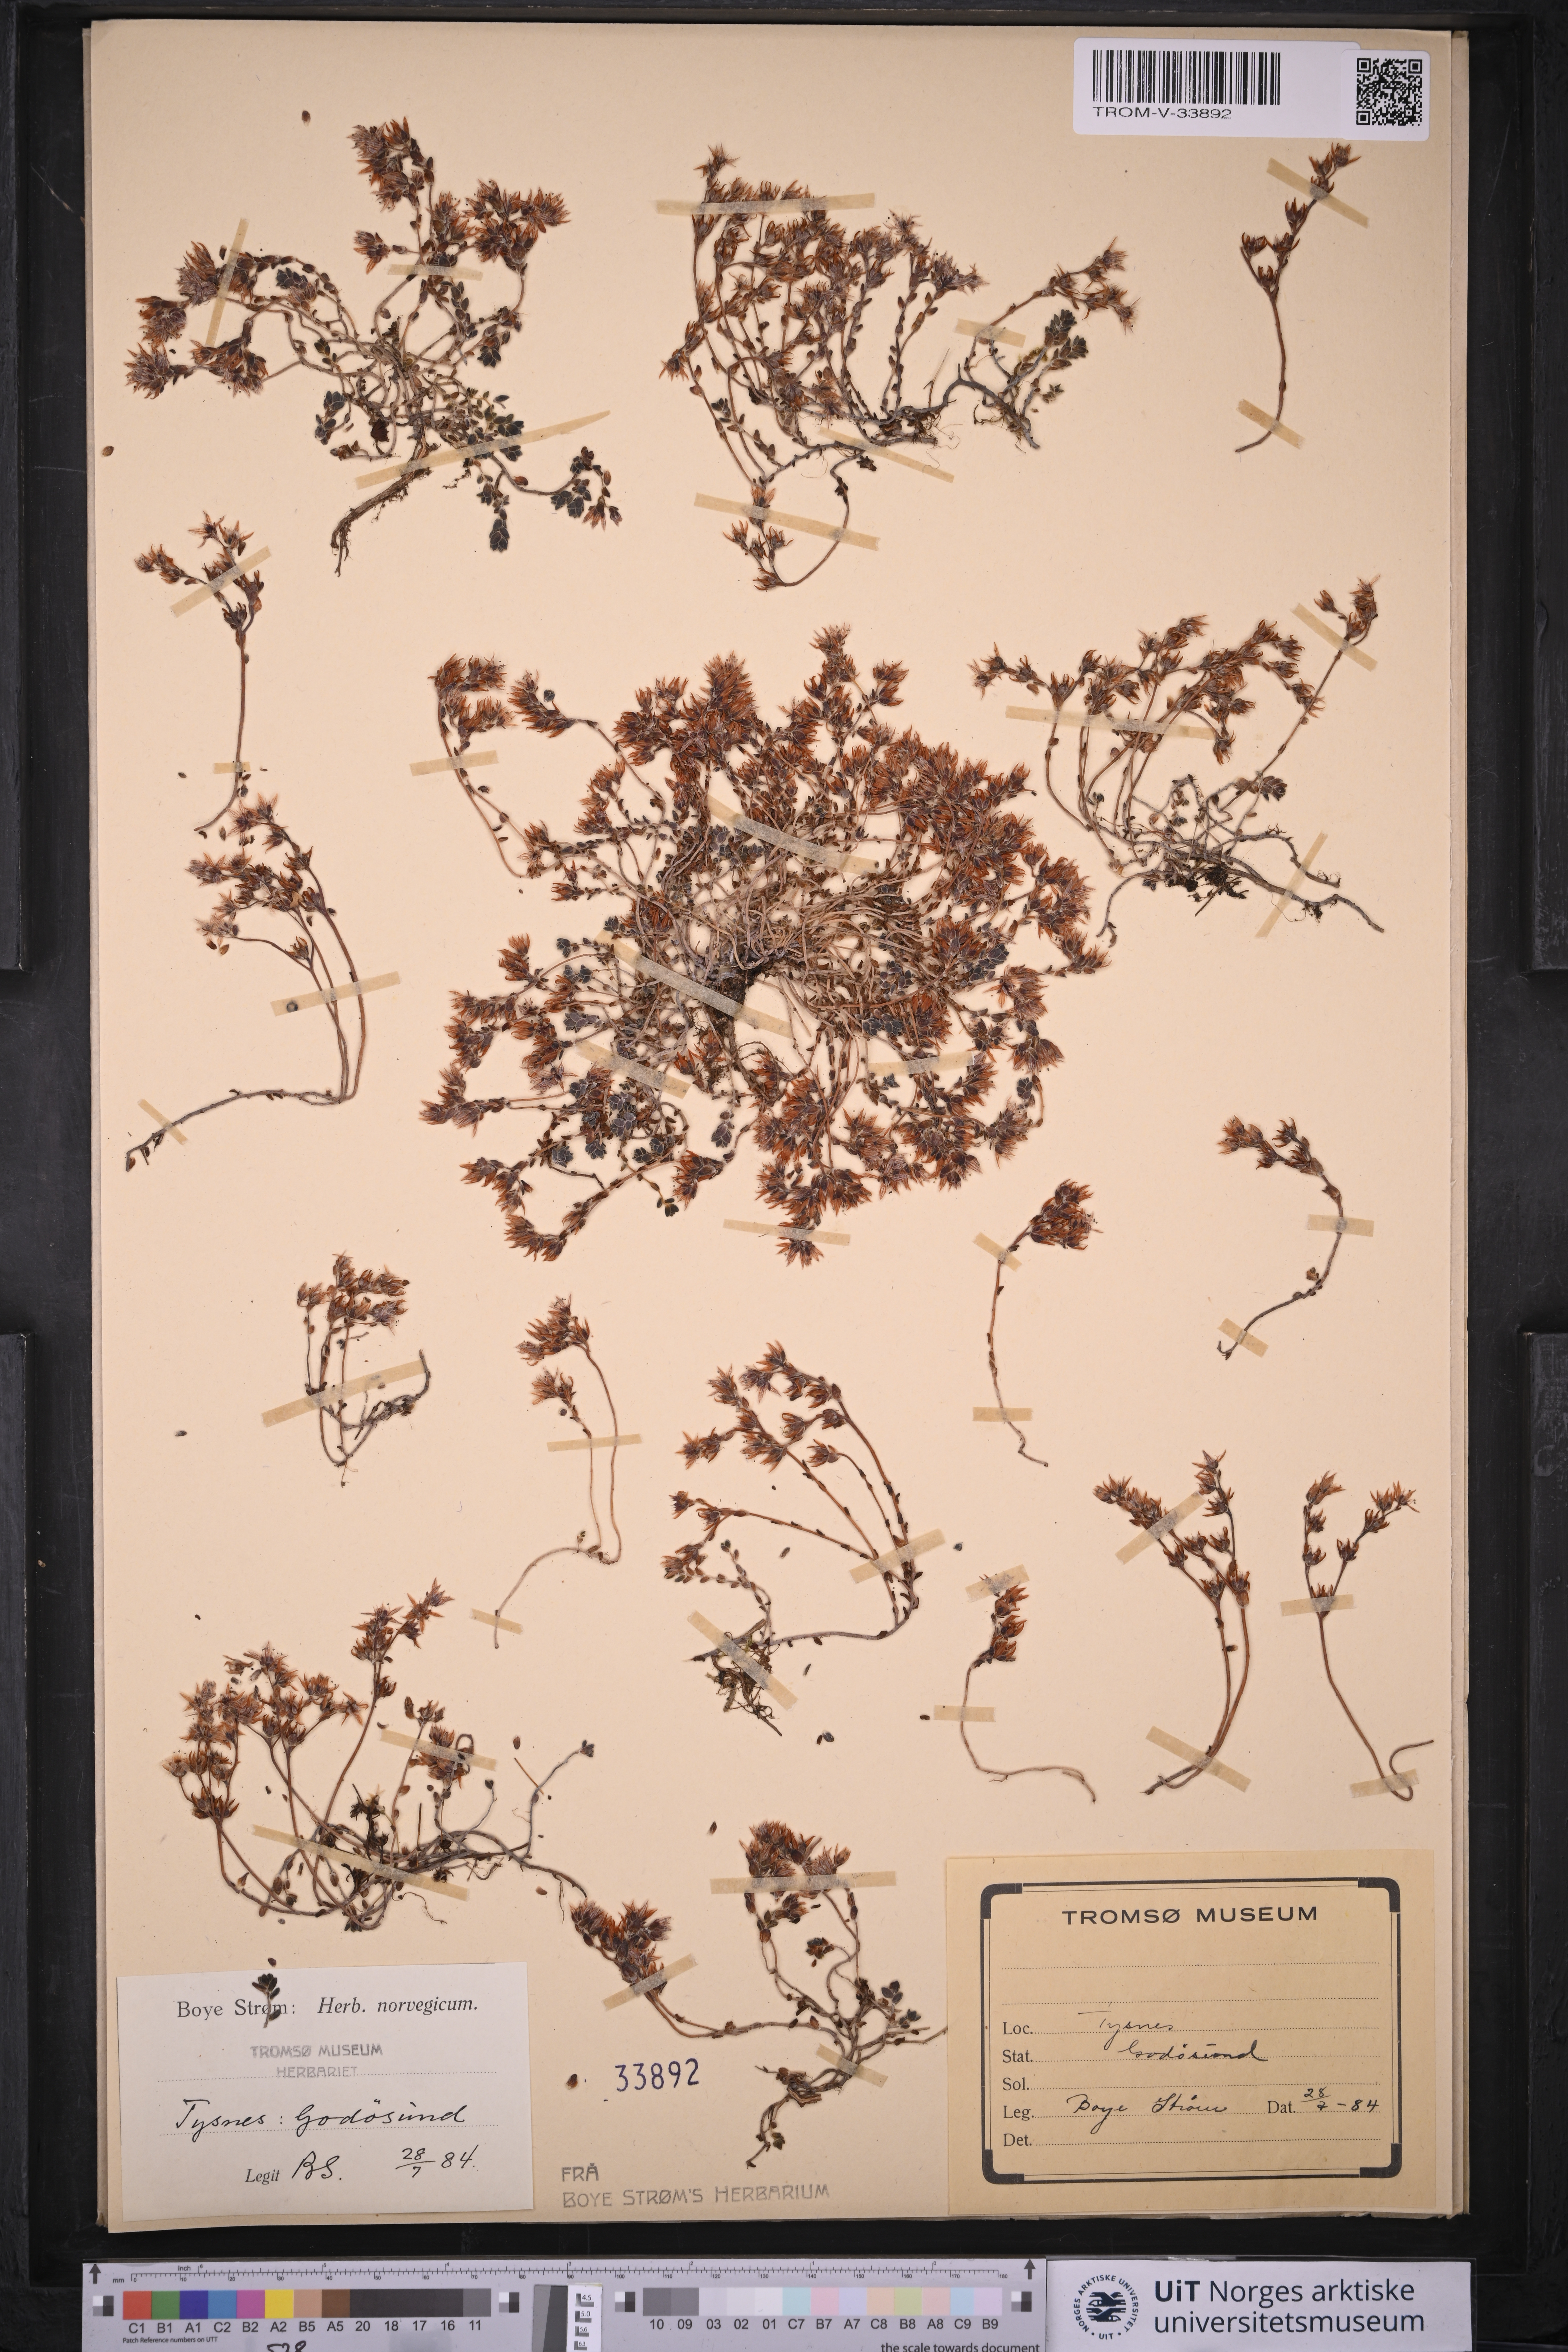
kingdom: Plantae
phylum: Tracheophyta
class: Magnoliopsida
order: Saxifragales
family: Crassulaceae
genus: Sedum
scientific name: Sedum anglicum
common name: English stonecrop
